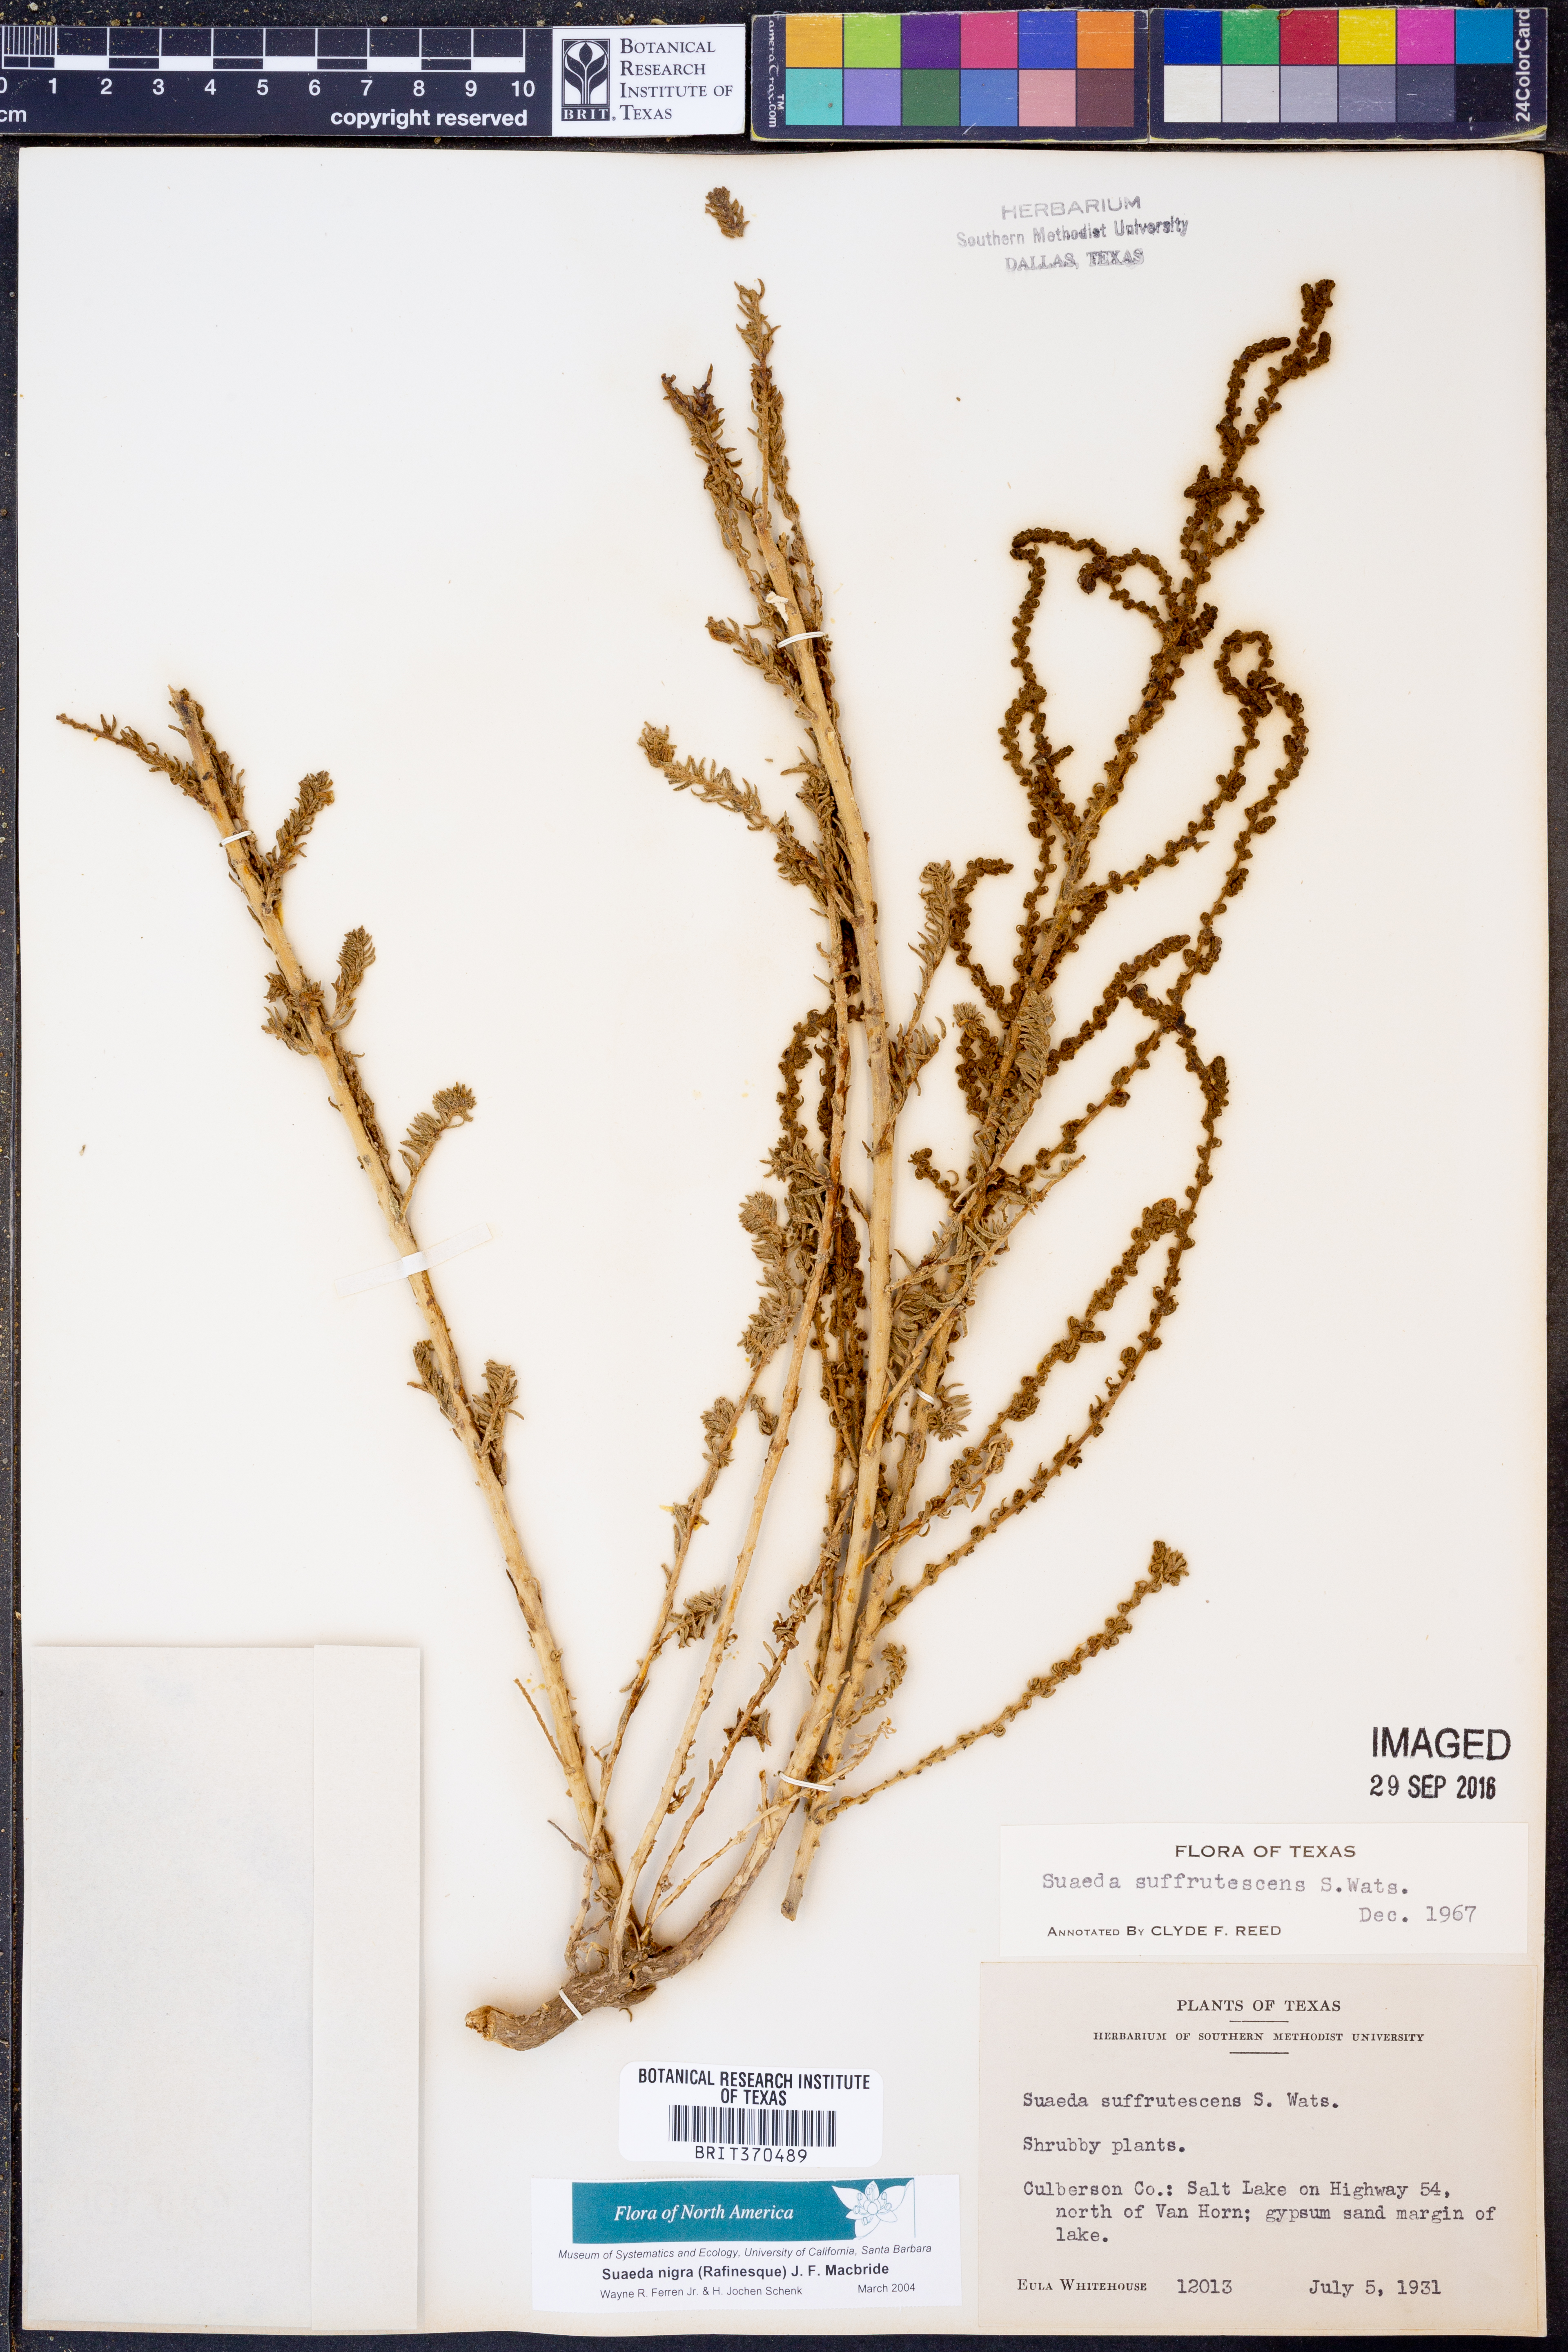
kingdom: Plantae
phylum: Tracheophyta
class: Magnoliopsida
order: Caryophyllales
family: Amaranthaceae
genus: Suaeda
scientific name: Suaeda nigra
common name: Bush seepweed
